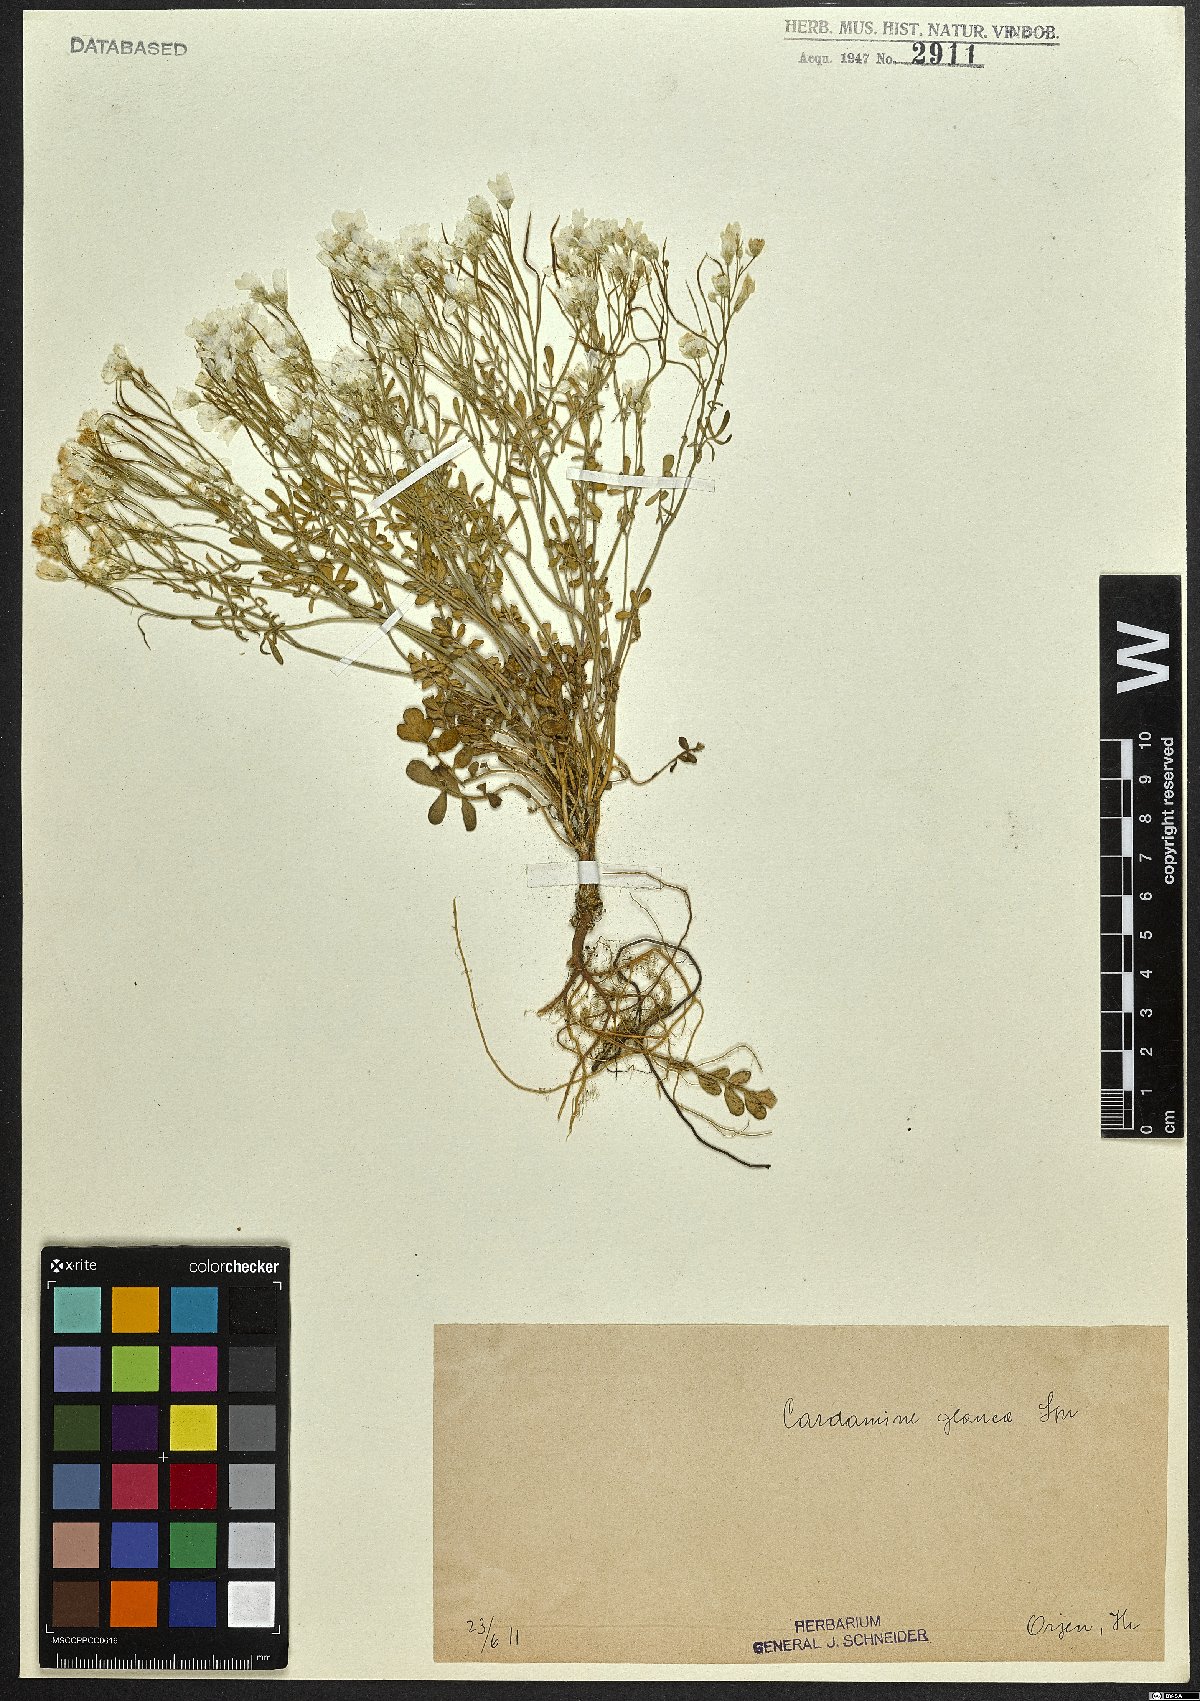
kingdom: Plantae
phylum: Tracheophyta
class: Magnoliopsida
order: Brassicales
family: Brassicaceae
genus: Cardamine
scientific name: Cardamine glauca
